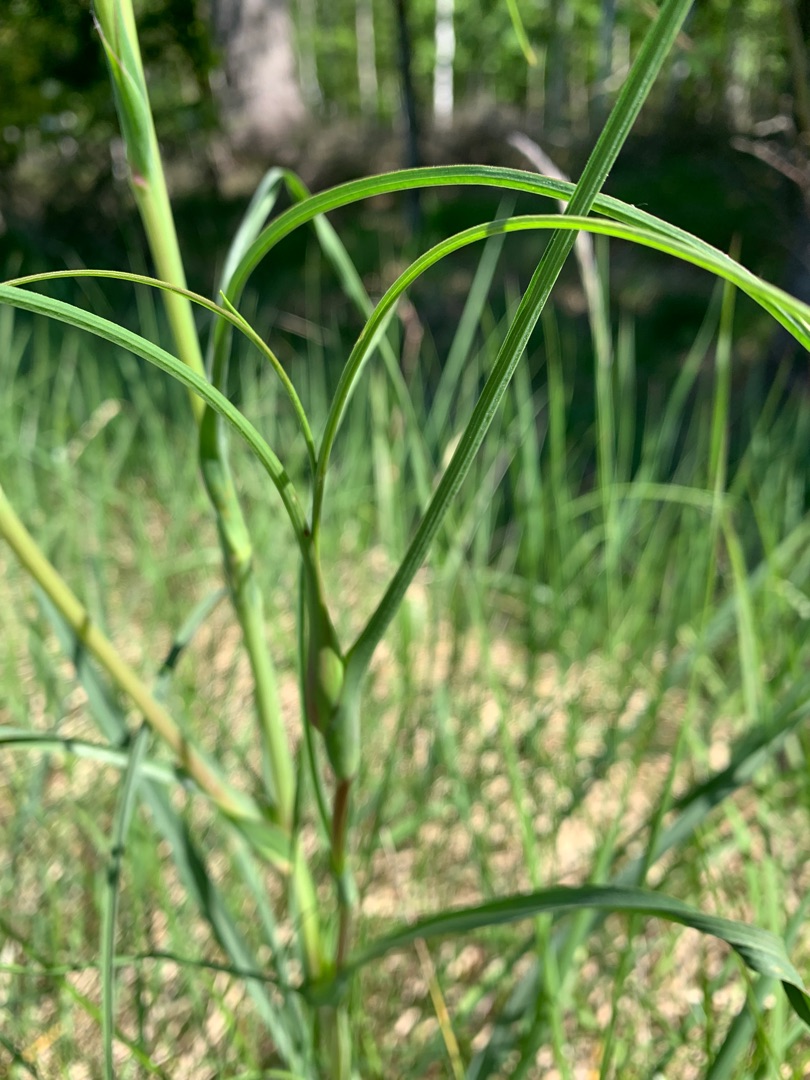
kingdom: Plantae
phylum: Tracheophyta
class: Magnoliopsida
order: Asterales
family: Asteraceae
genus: Tragopogon
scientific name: Tragopogon pratensis
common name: Gedeskæg
